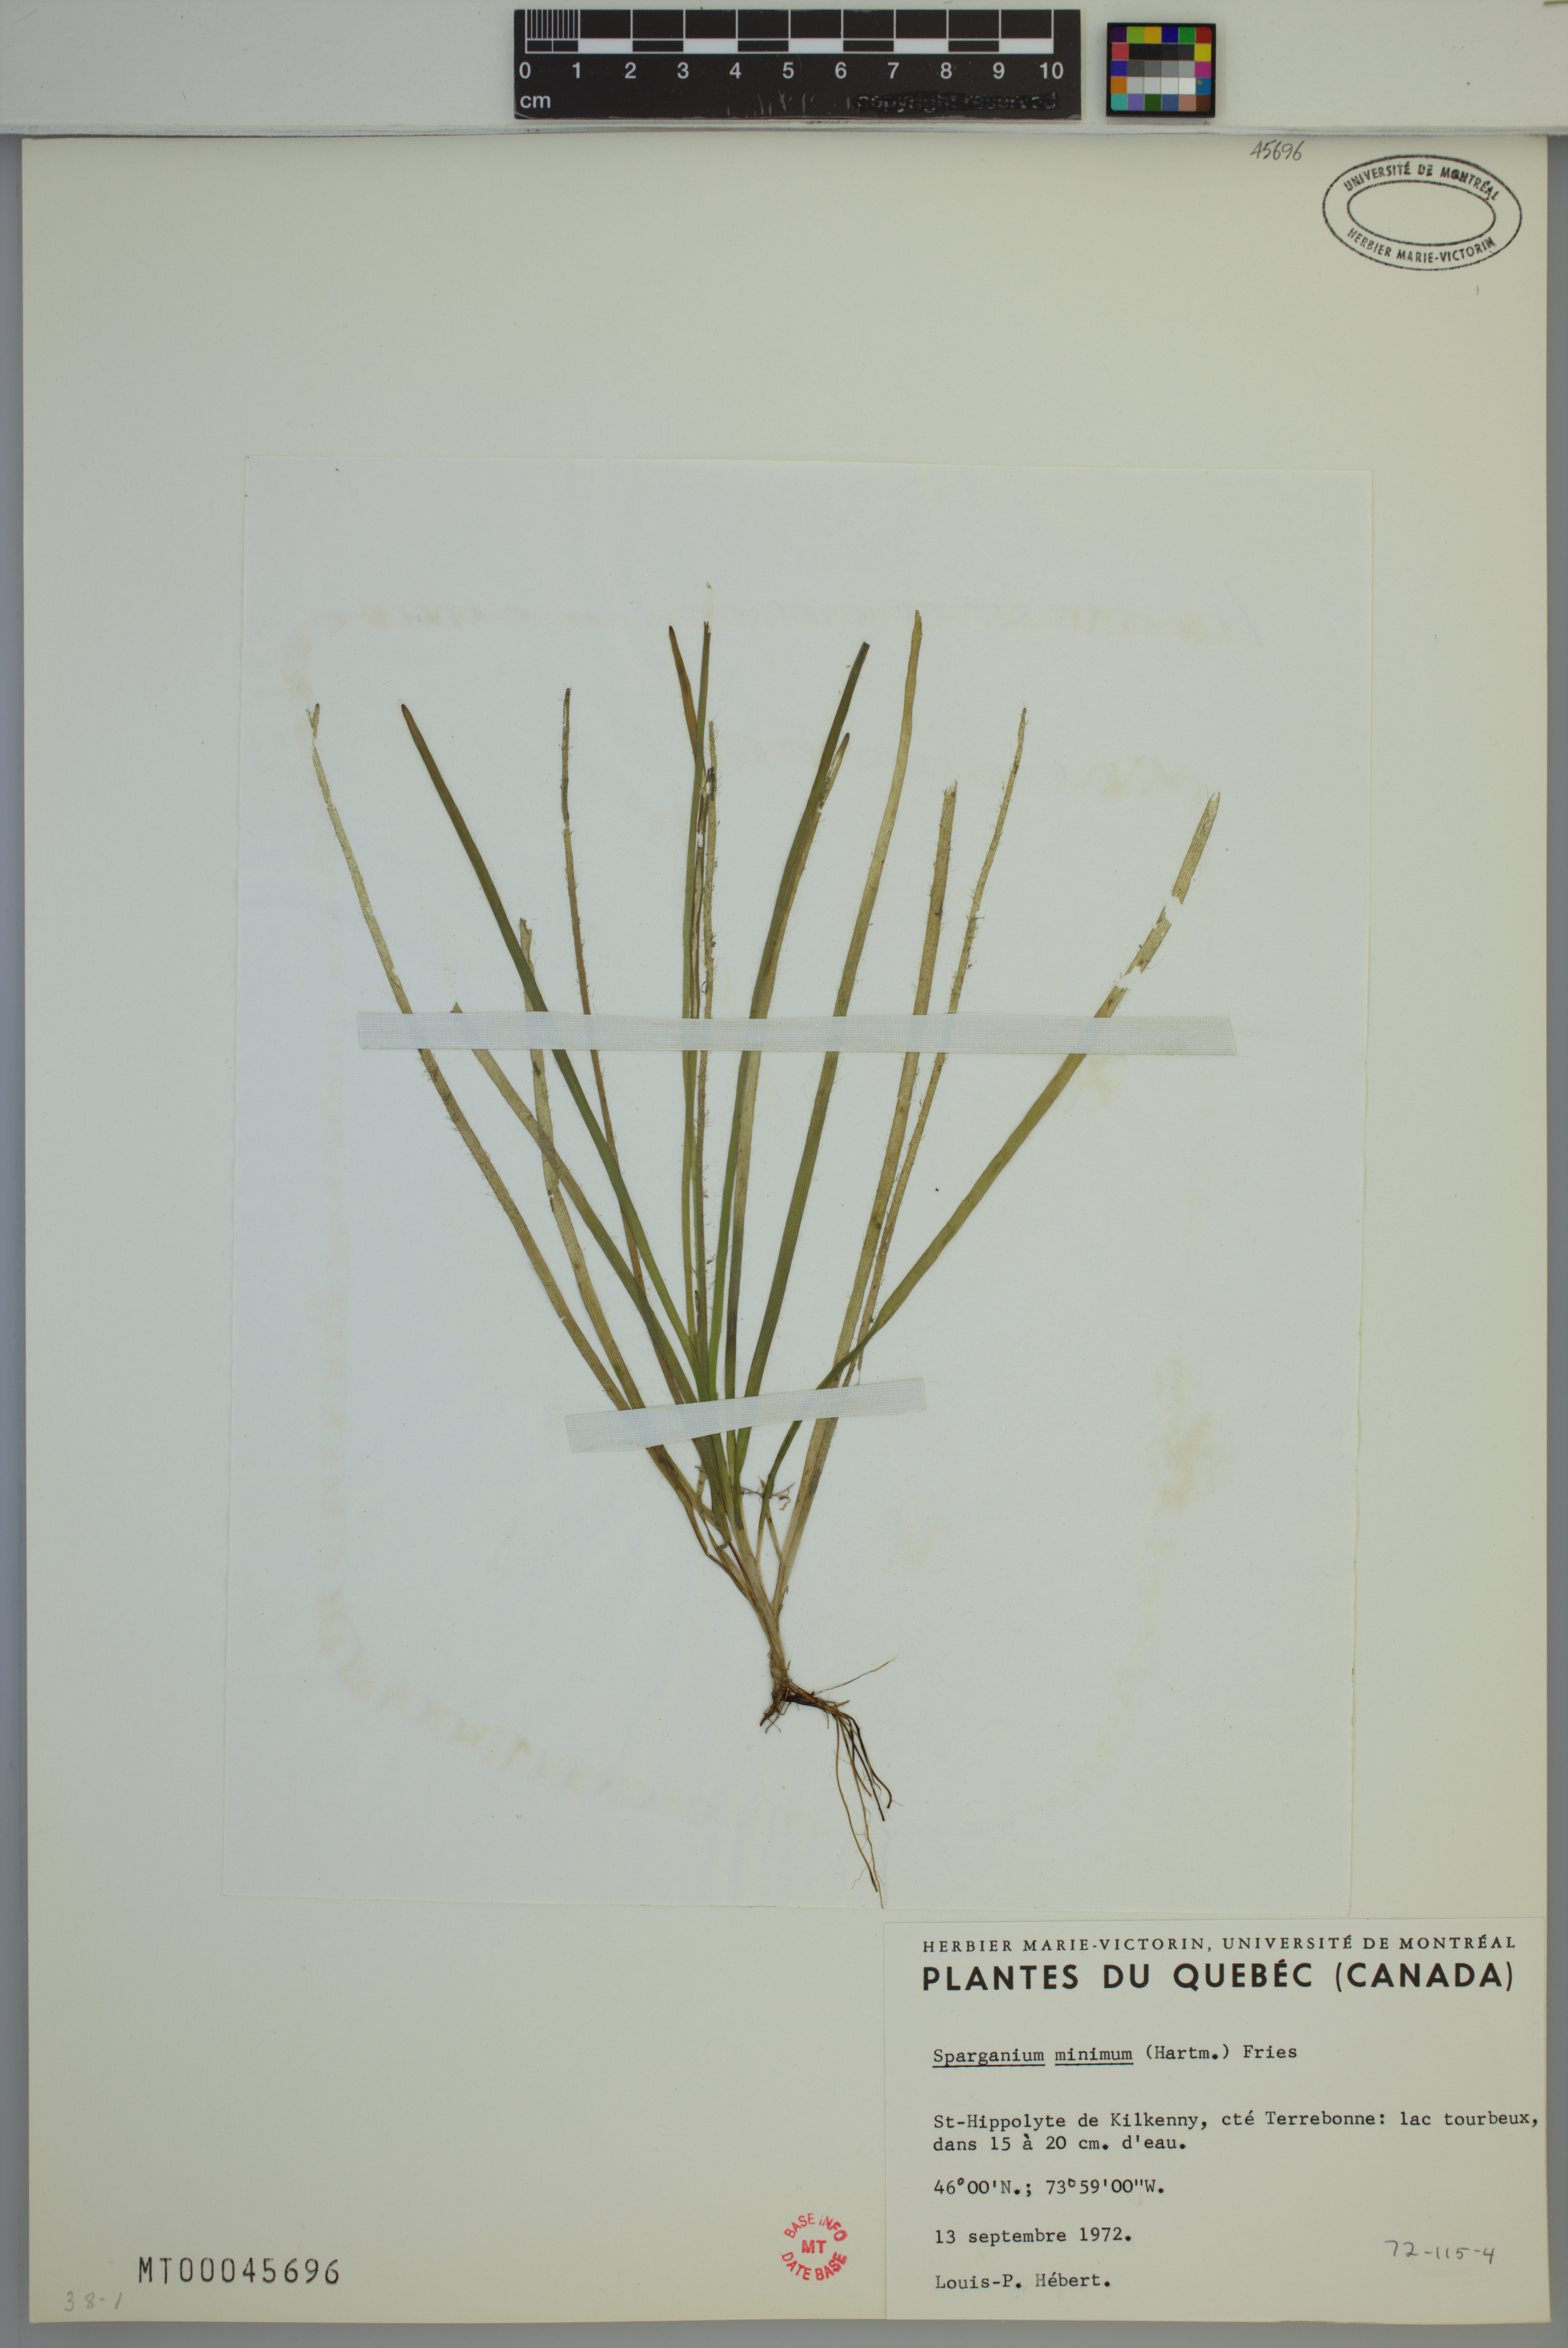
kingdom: Plantae
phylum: Tracheophyta
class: Liliopsida
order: Poales
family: Typhaceae
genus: Sparganium
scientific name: Sparganium natans
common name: Least bur-reed
